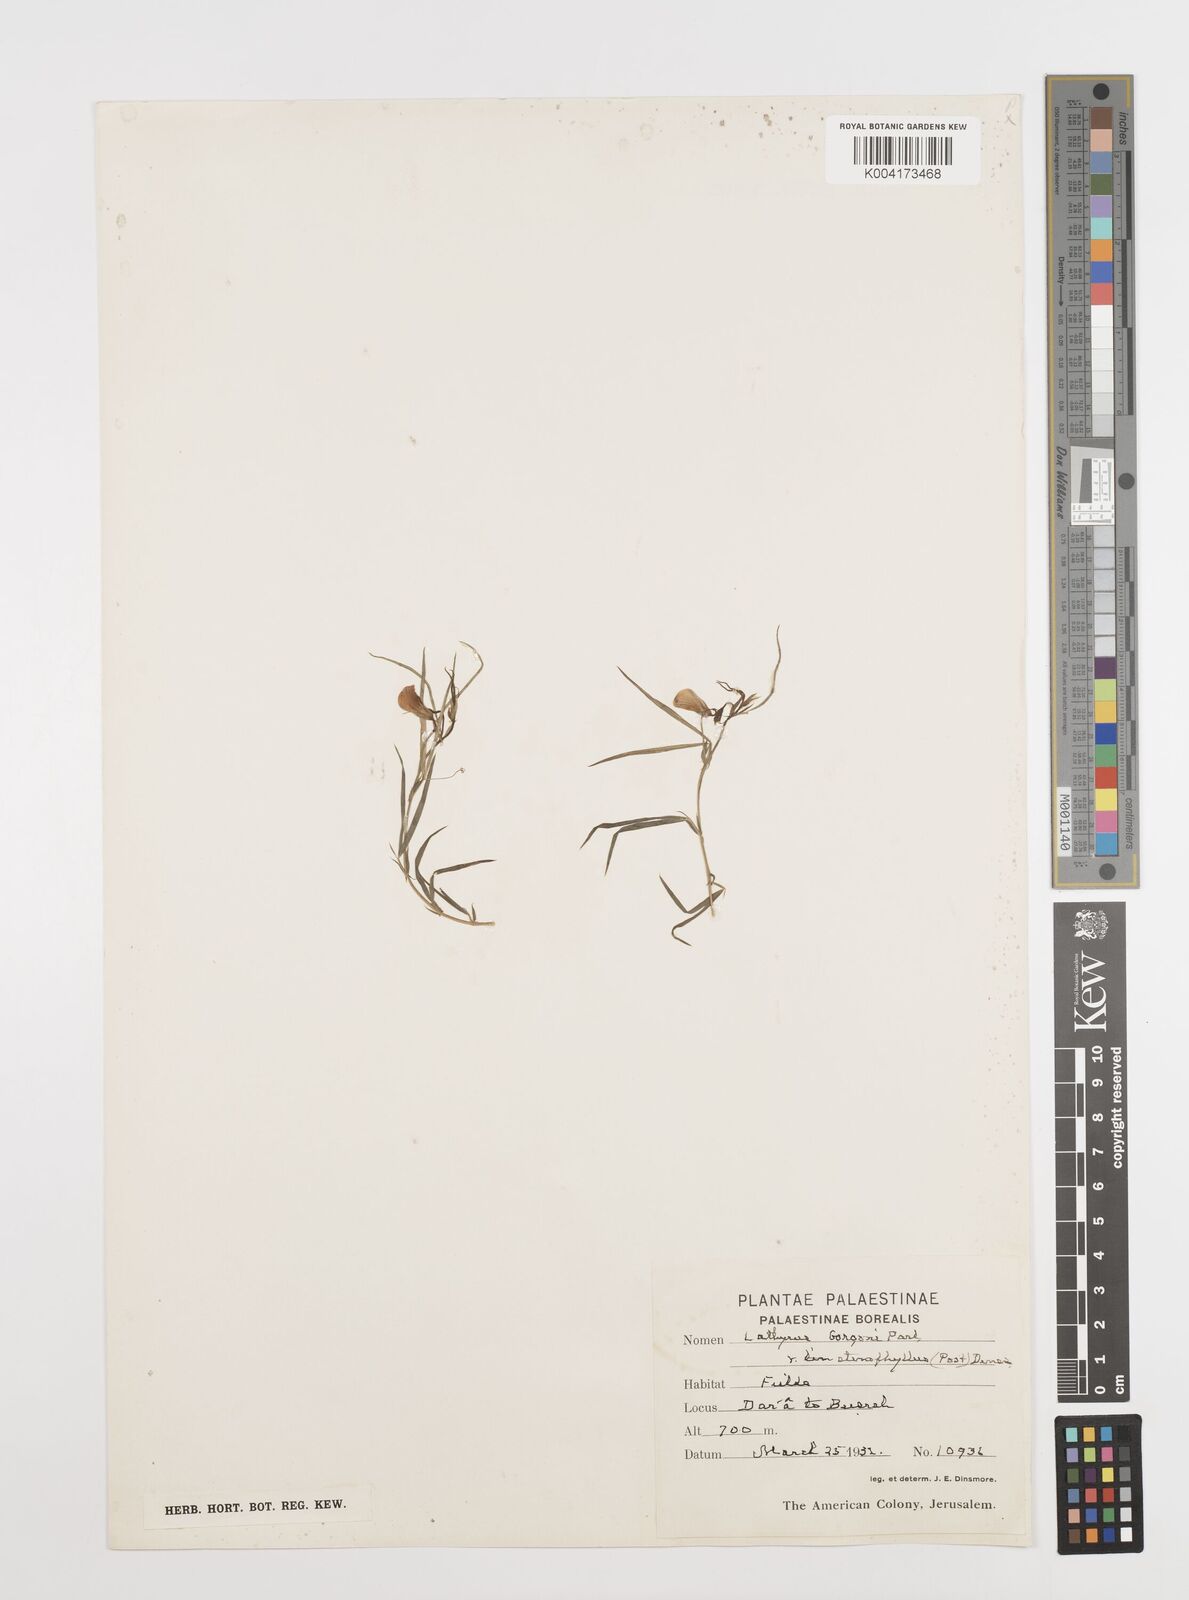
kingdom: Plantae
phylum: Tracheophyta
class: Magnoliopsida
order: Fabales
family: Fabaceae
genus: Lathyrus
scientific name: Lathyrus gorgoni
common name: Rare pea
